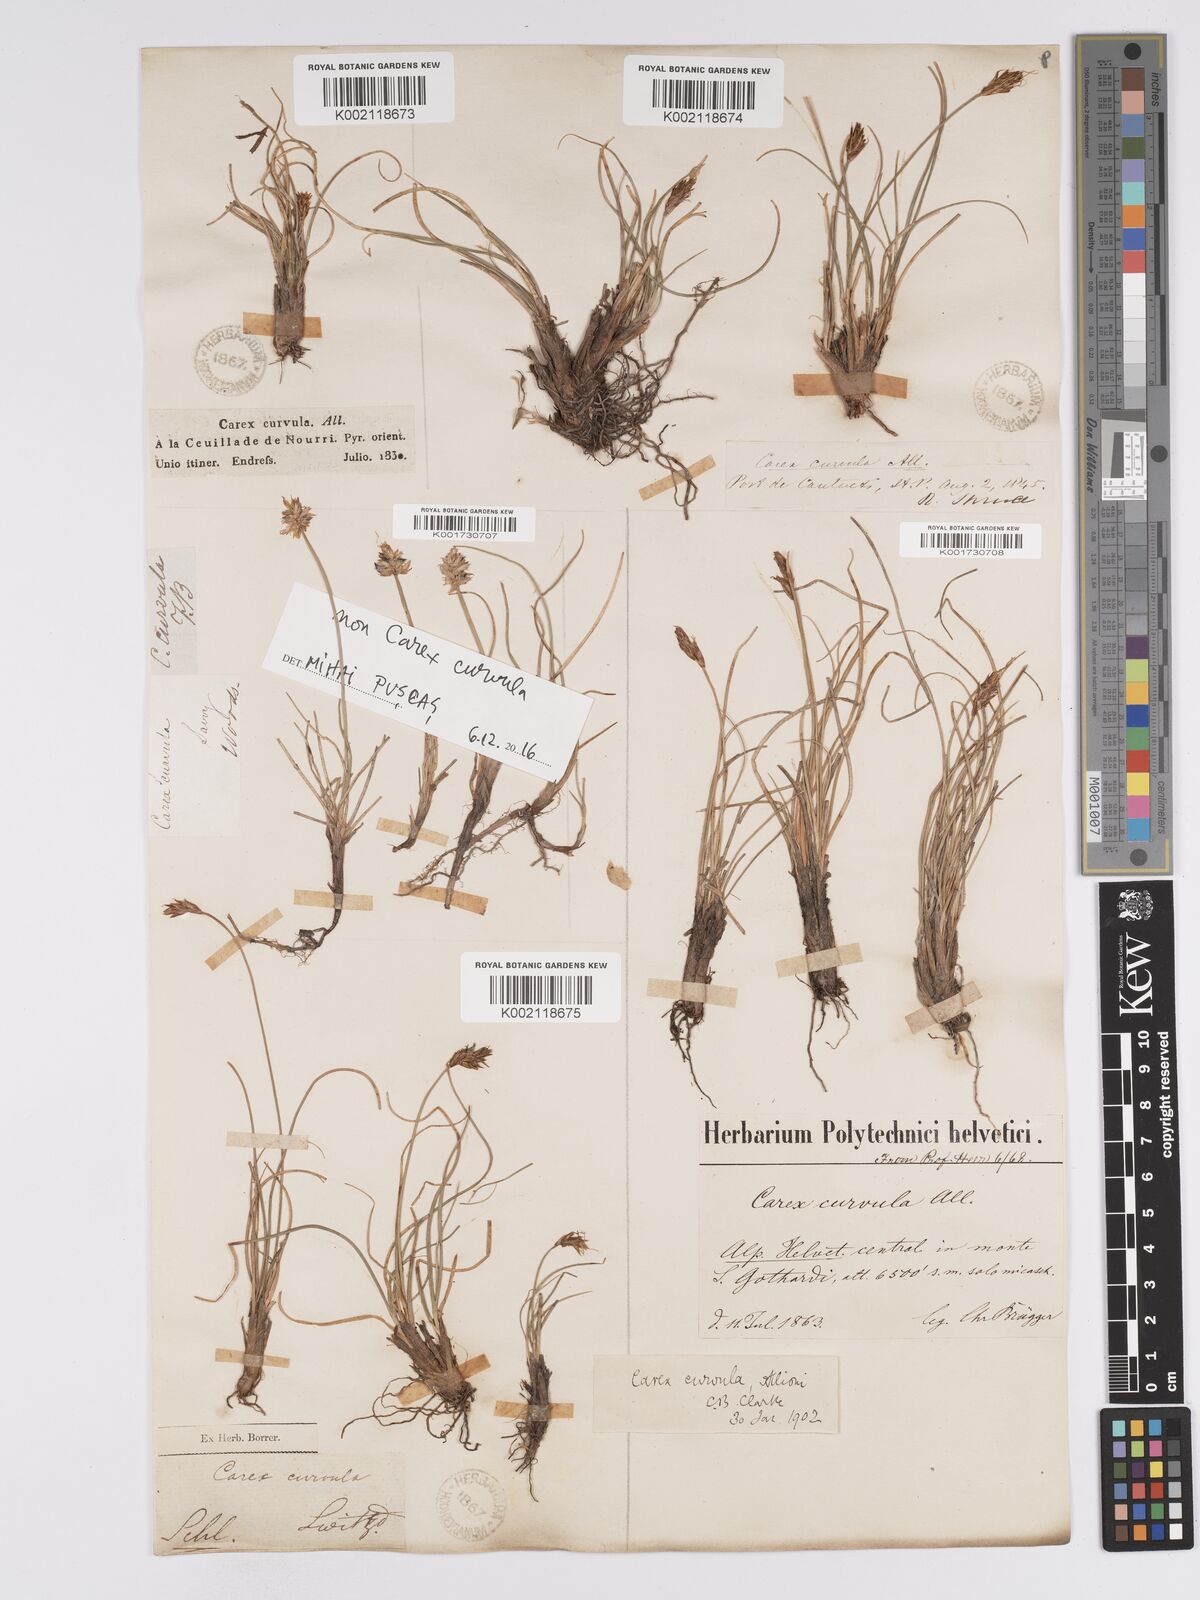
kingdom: Plantae
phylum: Tracheophyta
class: Liliopsida
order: Poales
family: Cyperaceae
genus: Carex
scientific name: Carex curvula
